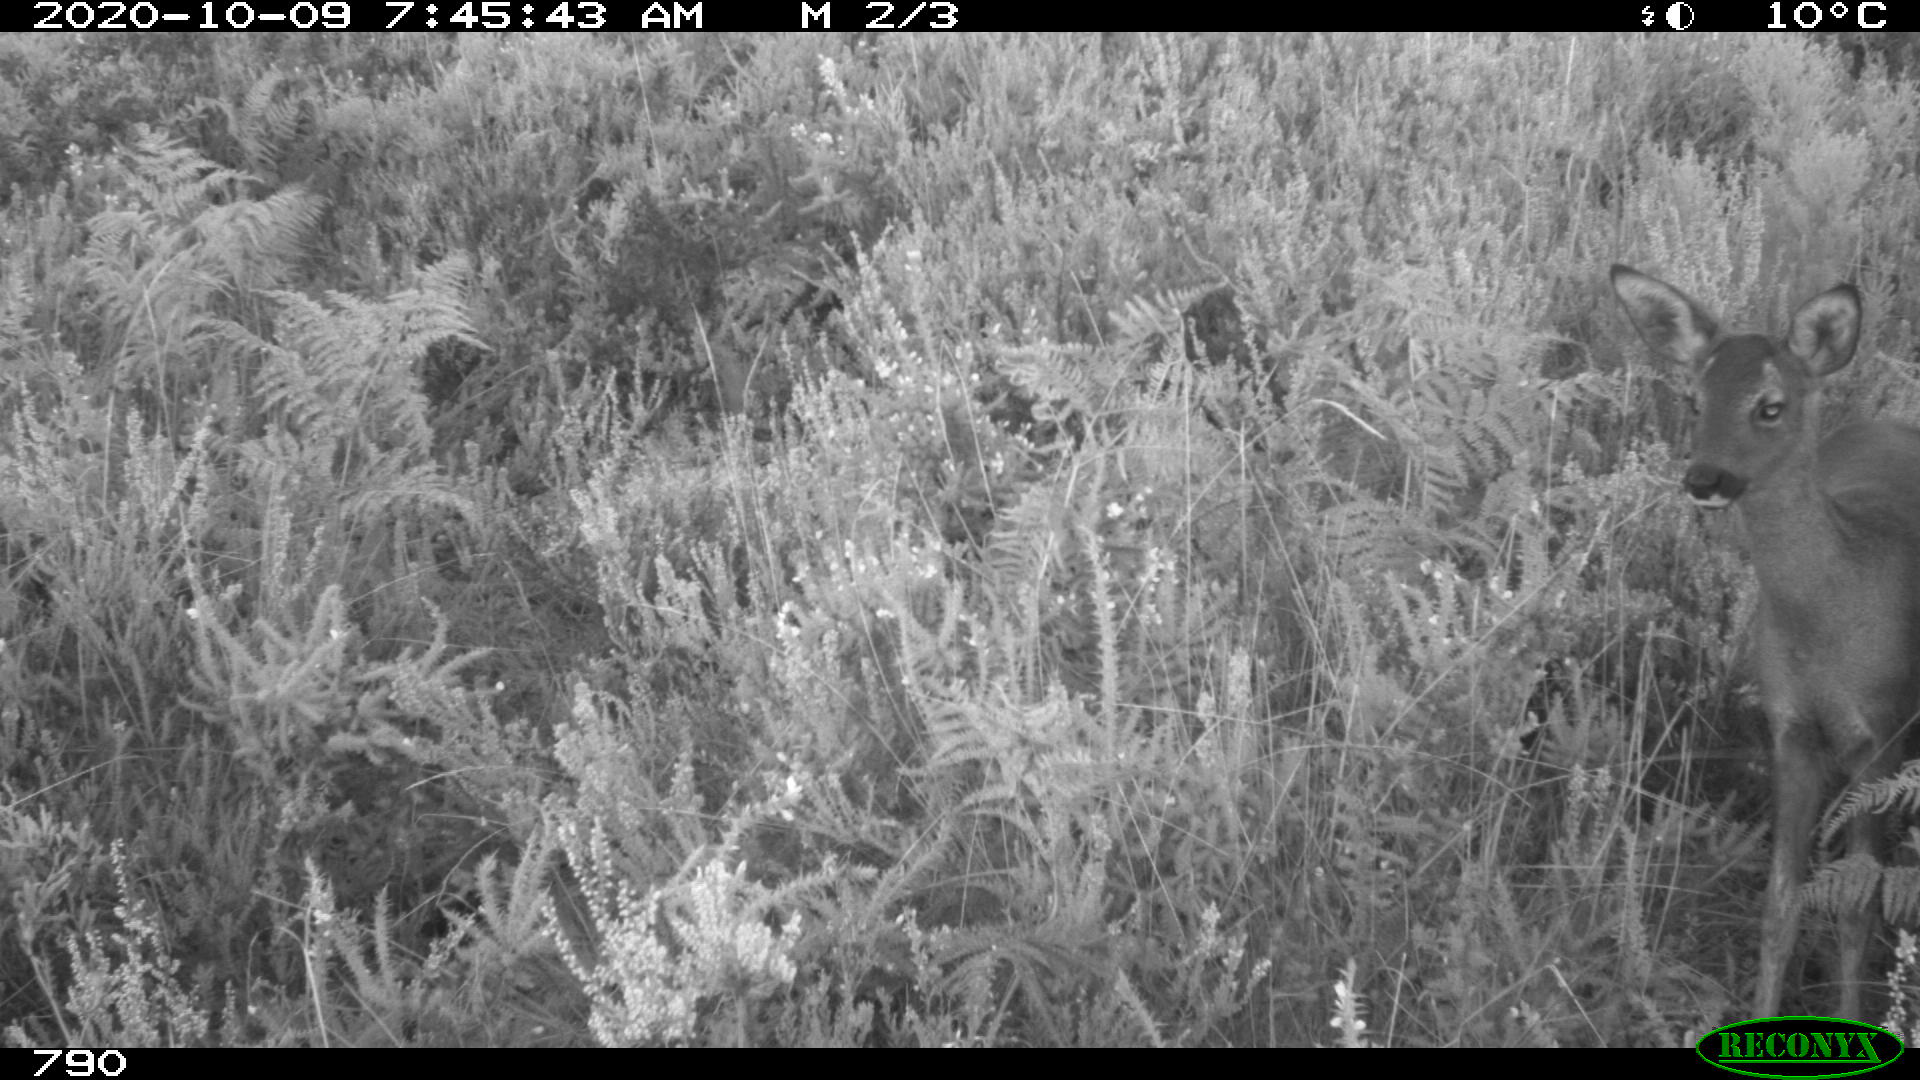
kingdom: Animalia
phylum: Chordata
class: Mammalia
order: Artiodactyla
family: Cervidae
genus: Capreolus
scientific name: Capreolus capreolus
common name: Western roe deer
